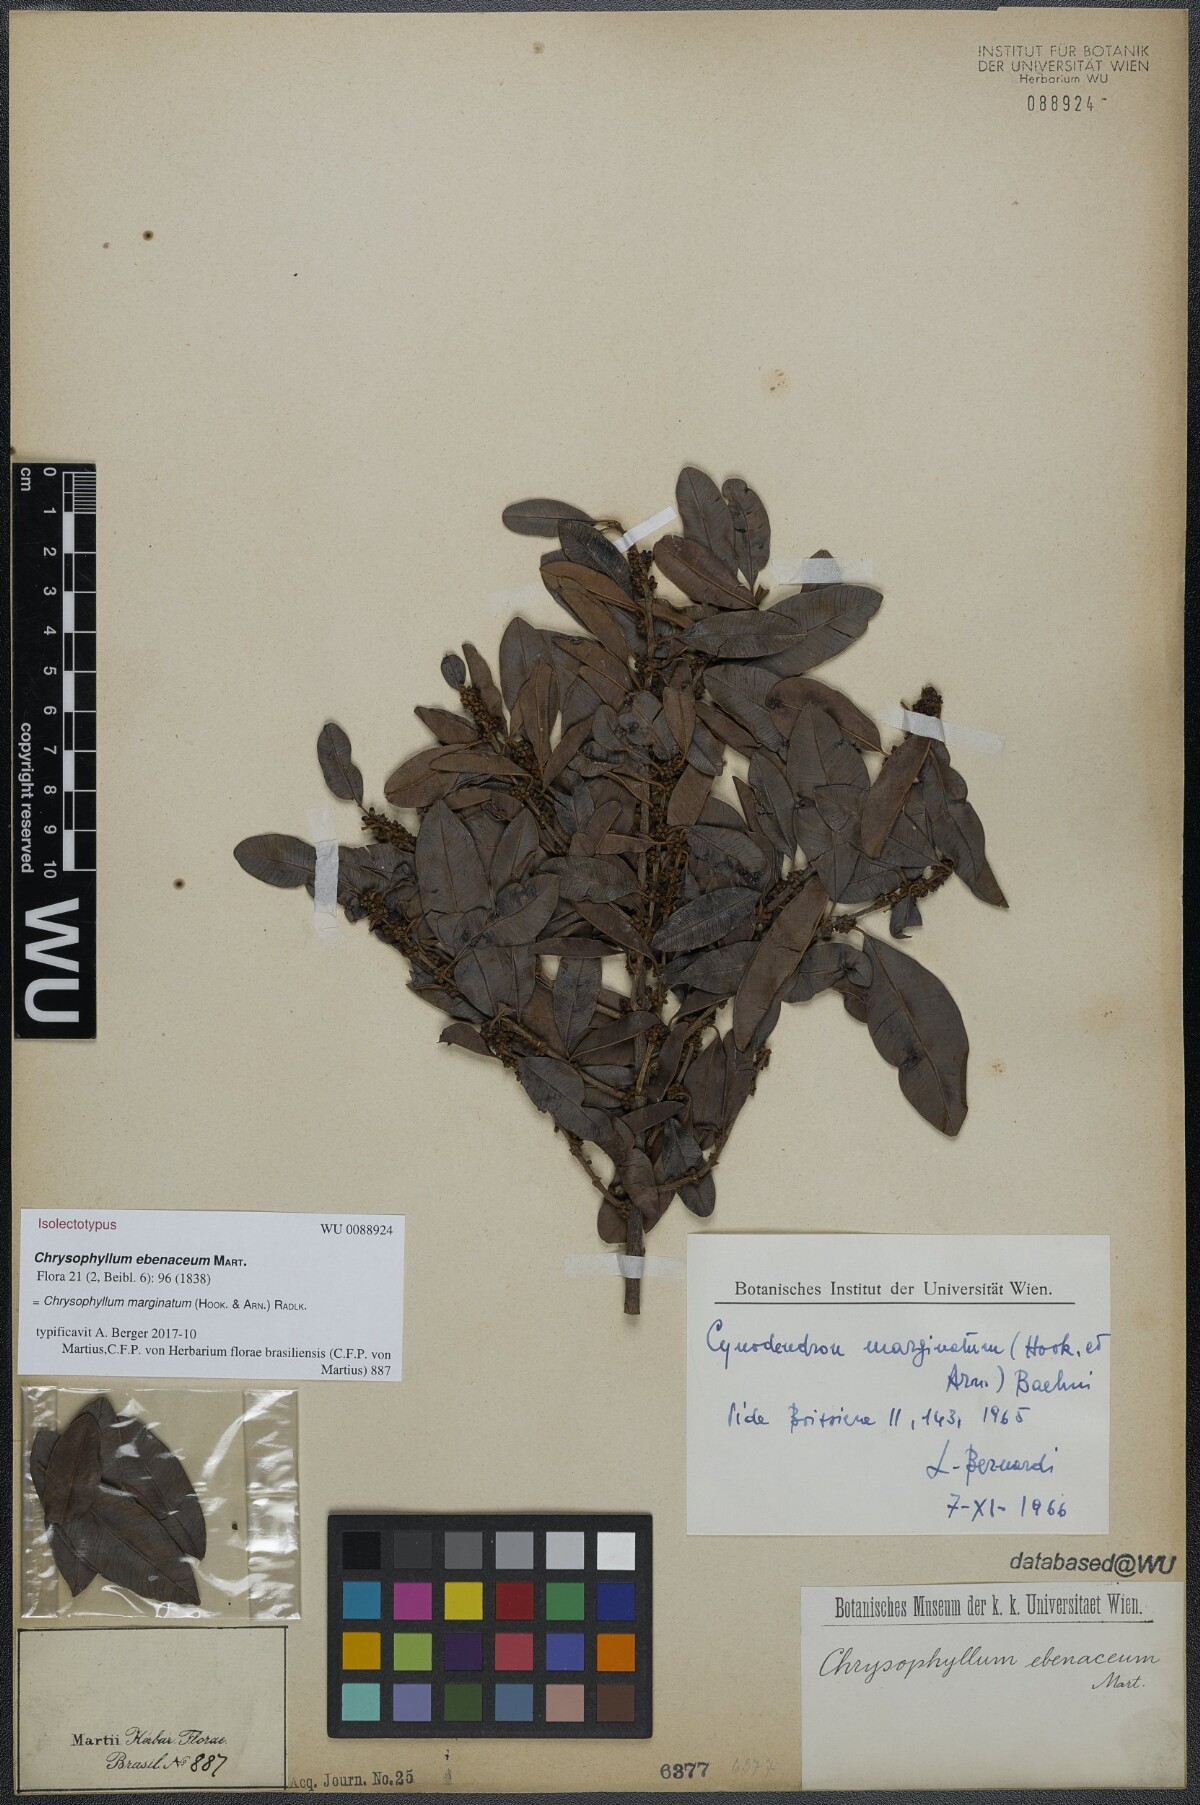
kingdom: Plantae
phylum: Tracheophyta
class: Magnoliopsida
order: Ericales
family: Sapotaceae
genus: Chrysophyllum
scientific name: Chrysophyllum marginatum
